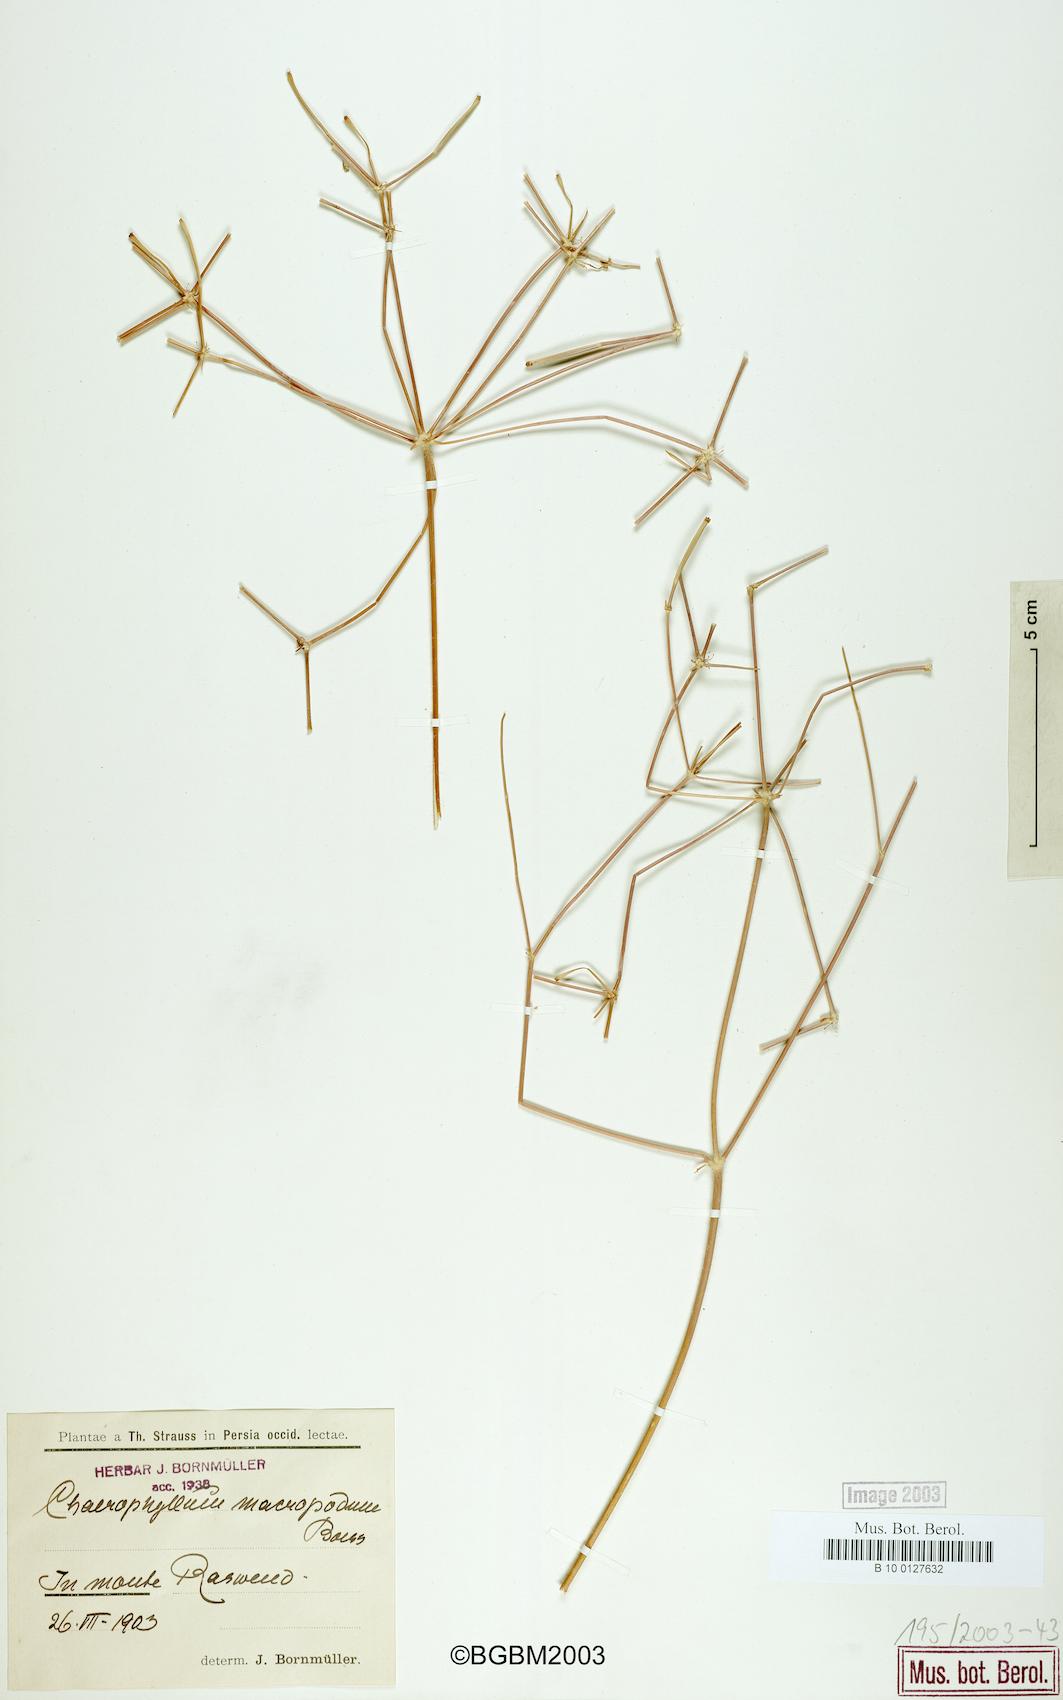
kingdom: Plantae
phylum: Tracheophyta
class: Magnoliopsida
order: Apiales
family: Apiaceae
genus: Chaerophyllum
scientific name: Chaerophyllum macropodum
